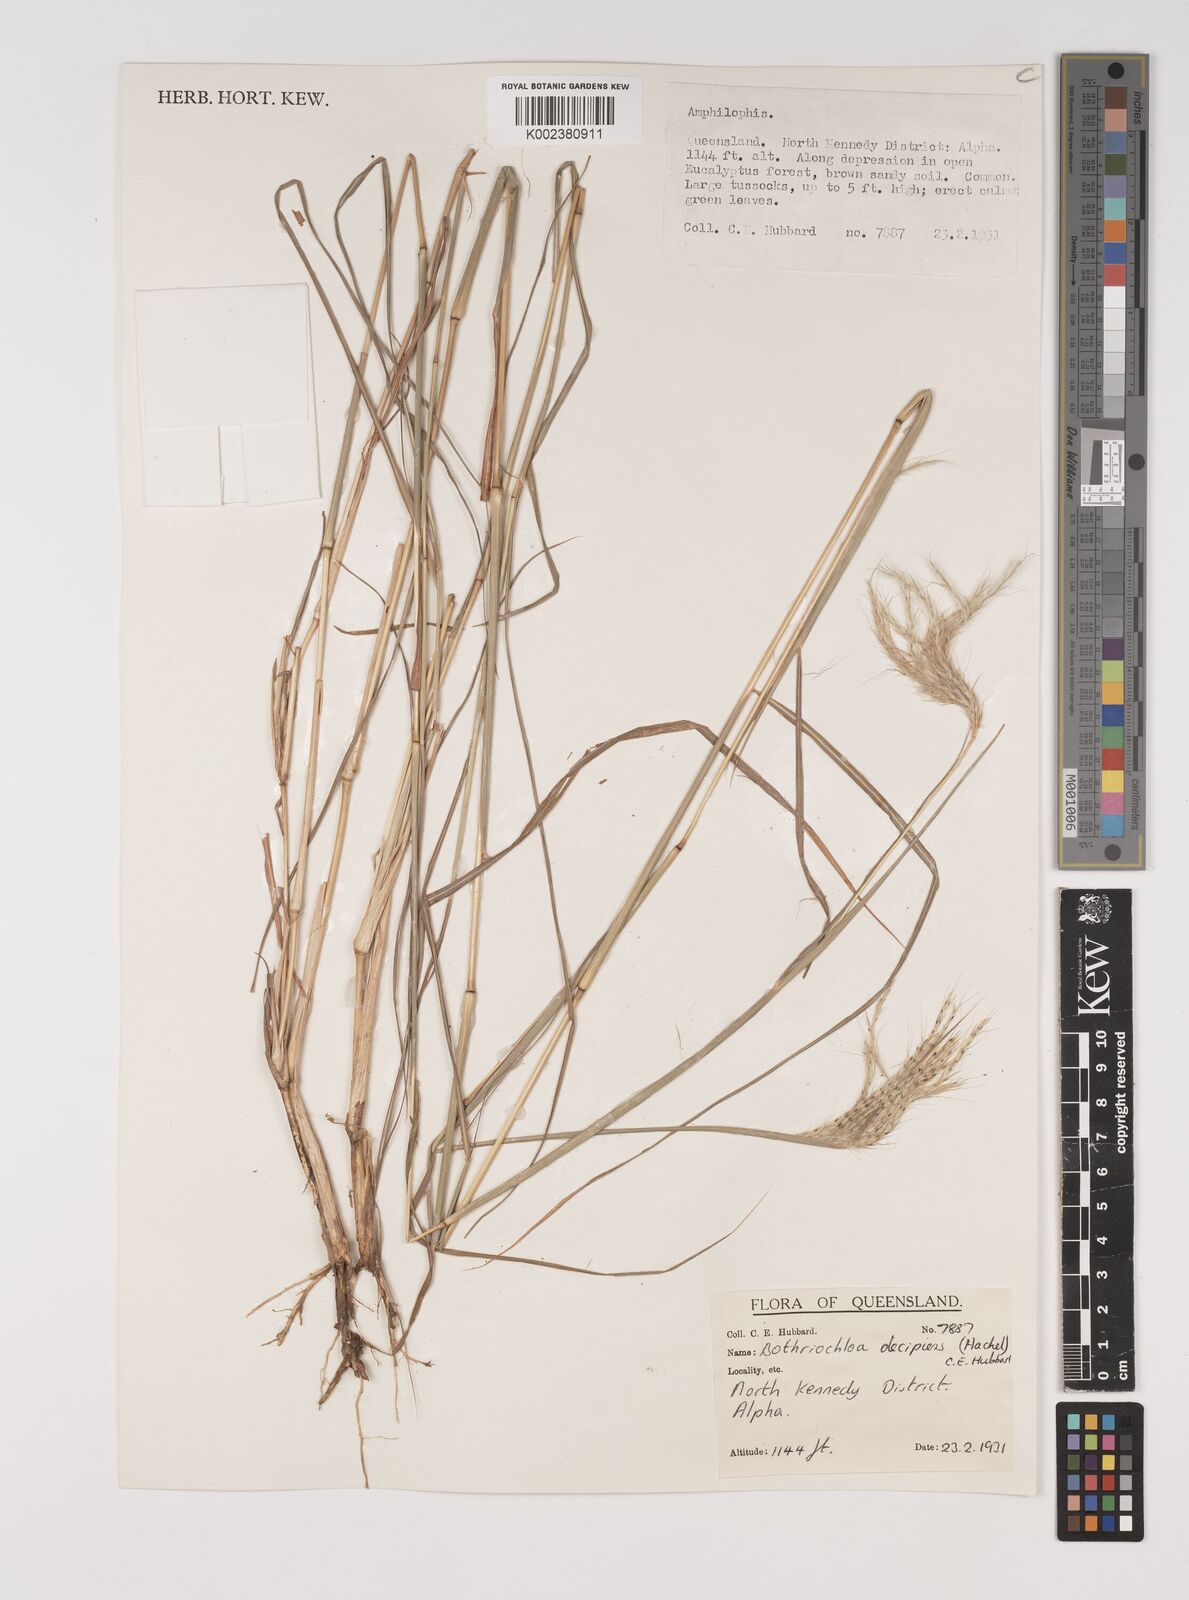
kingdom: Plantae
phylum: Tracheophyta
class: Liliopsida
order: Poales
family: Poaceae
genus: Bothriochloa
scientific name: Bothriochloa decipiens
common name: Pitted-bluegrass
